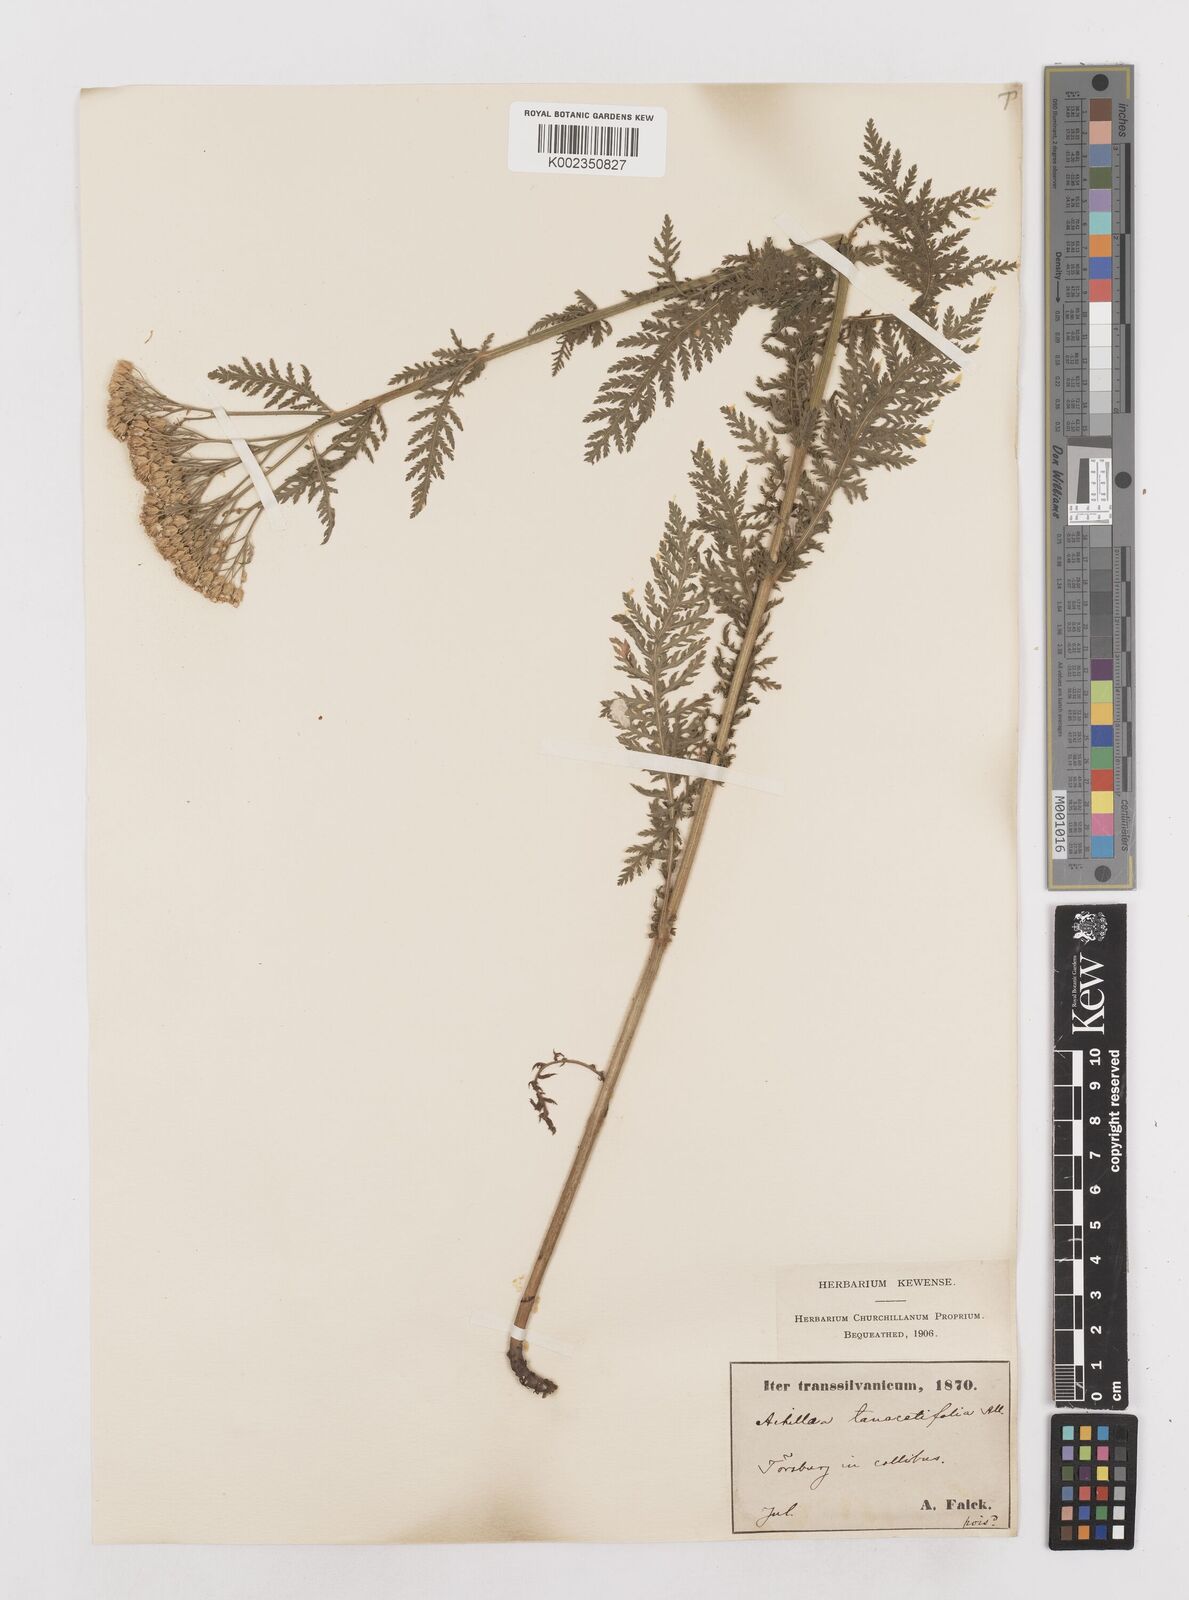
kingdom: Plantae
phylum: Tracheophyta
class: Magnoliopsida
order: Asterales
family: Asteraceae
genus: Achillea
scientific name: Achillea distans
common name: Tall yarrow
